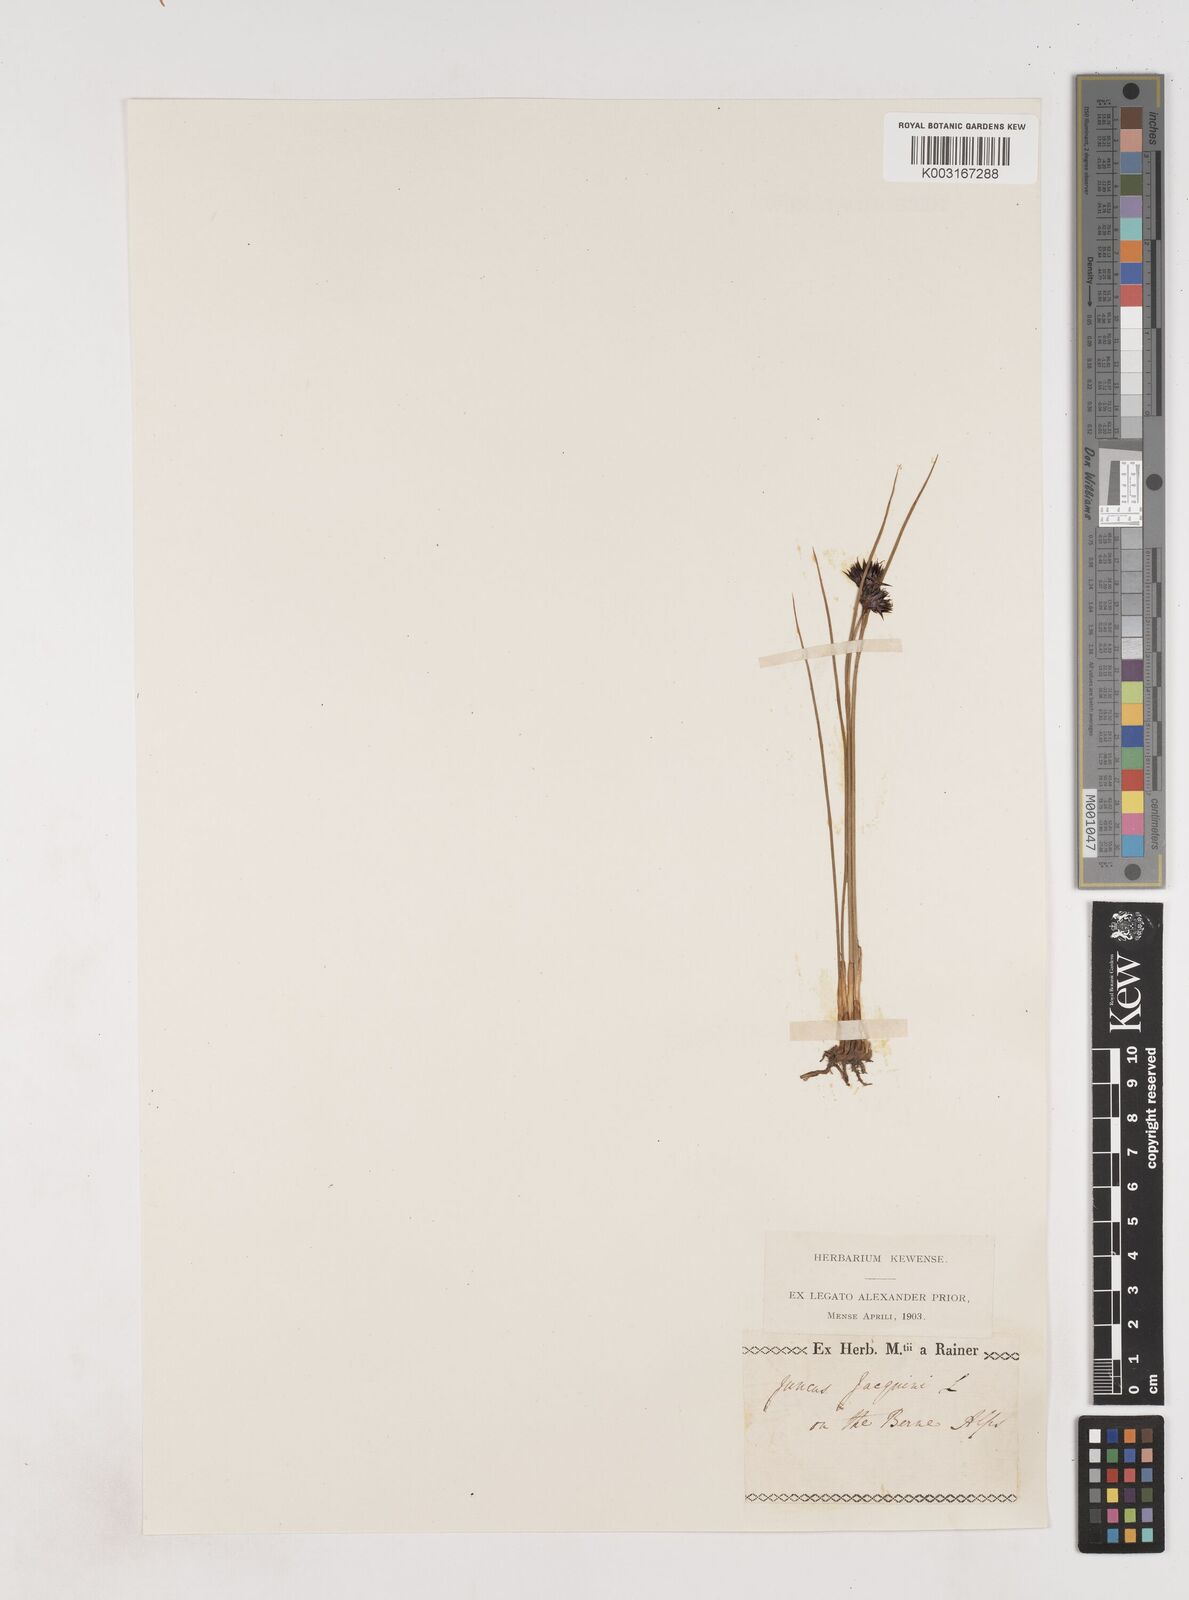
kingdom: Plantae
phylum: Tracheophyta
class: Liliopsida
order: Poales
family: Juncaceae
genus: Juncus
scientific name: Juncus jacquinii
